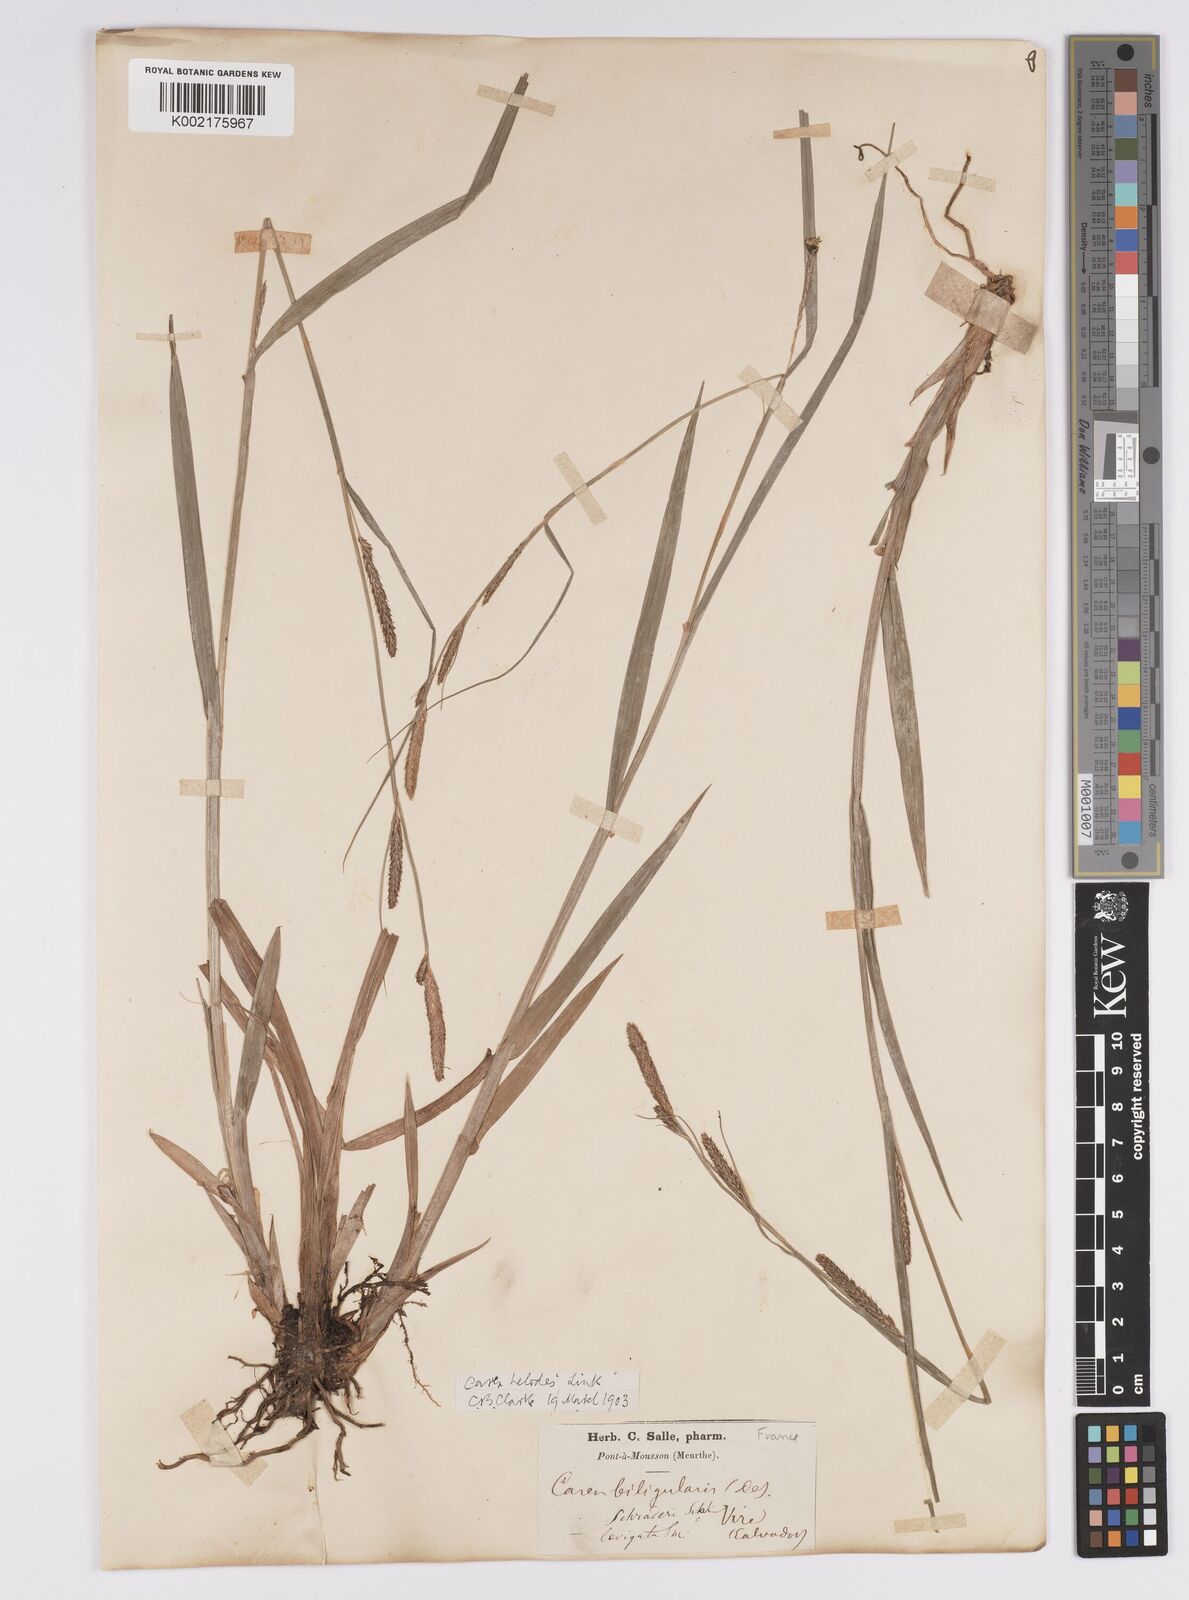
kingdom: Plantae
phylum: Tracheophyta
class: Liliopsida
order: Poales
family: Cyperaceae
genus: Carex
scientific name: Carex laevigata
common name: Smooth-stalked sedge
